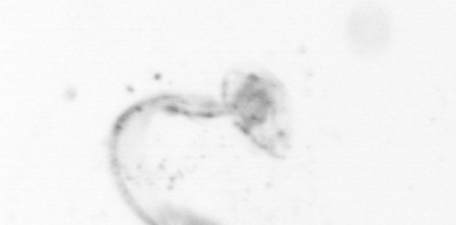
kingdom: Animalia
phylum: Chordata
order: Copelata
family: Fritillariidae
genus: Appendicularia
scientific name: Appendicularia
